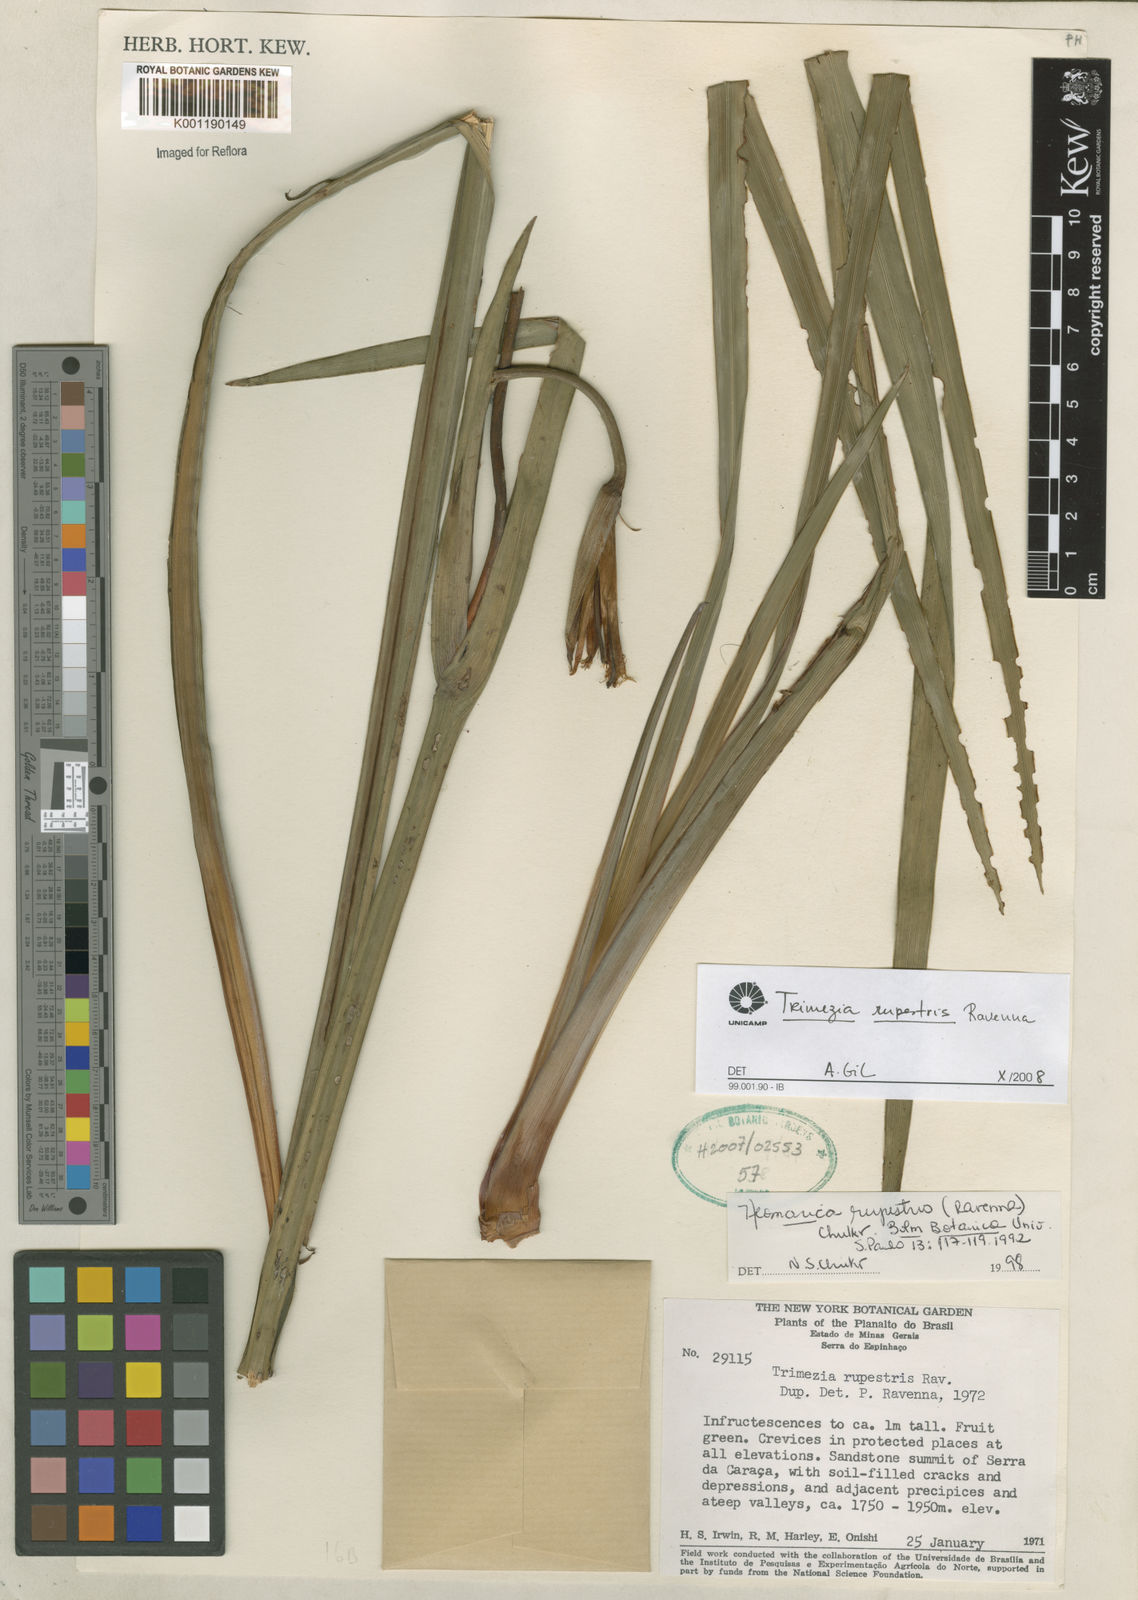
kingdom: Plantae
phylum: Tracheophyta
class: Liliopsida
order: Asparagales
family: Iridaceae
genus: Trimezia
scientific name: Trimezia
